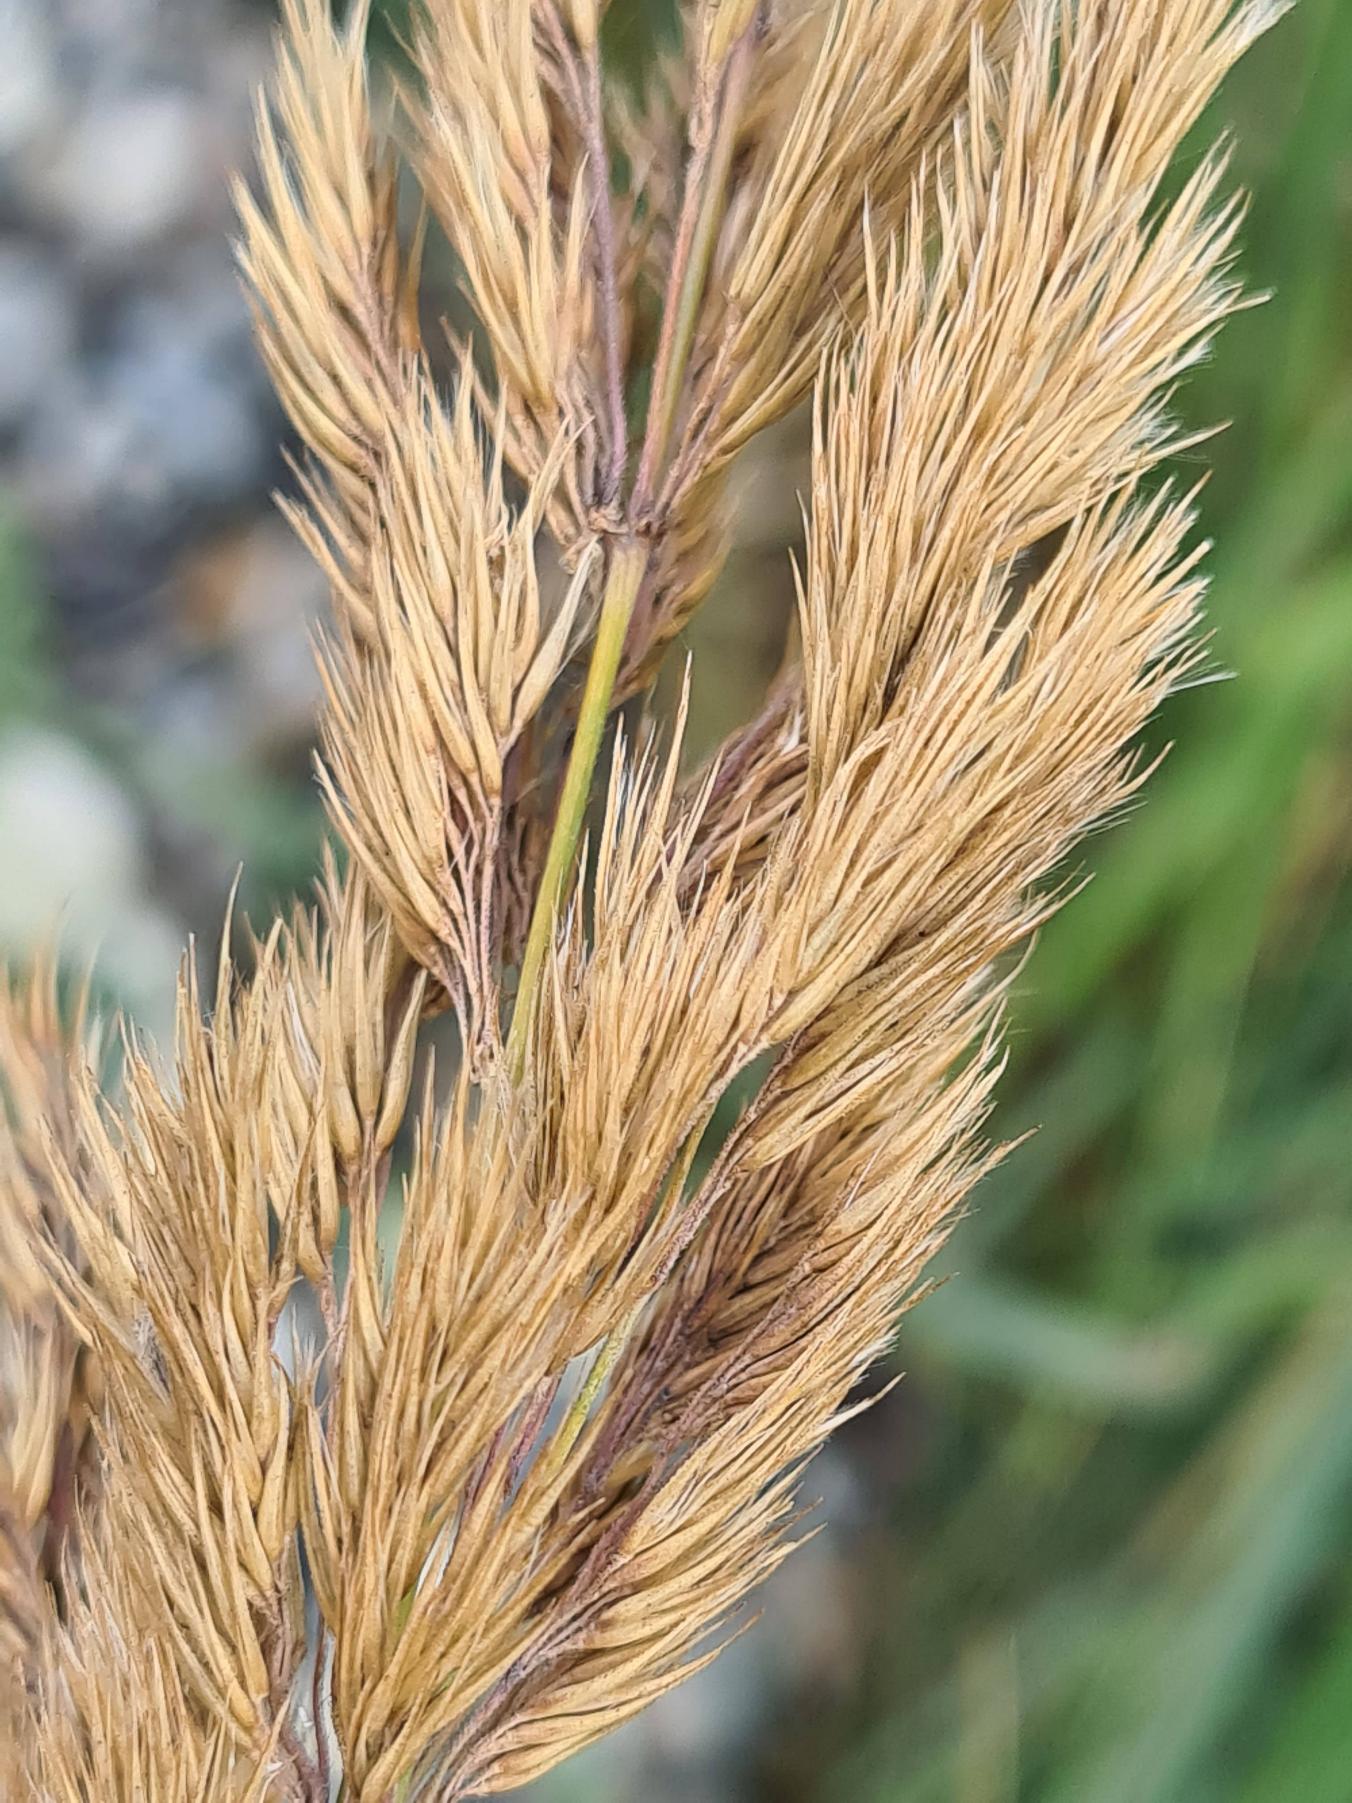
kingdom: Plantae
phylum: Tracheophyta
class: Liliopsida
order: Poales
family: Poaceae
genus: Calamagrostis
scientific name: Calamagrostis epigejos
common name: Bjerg-rørhvene
